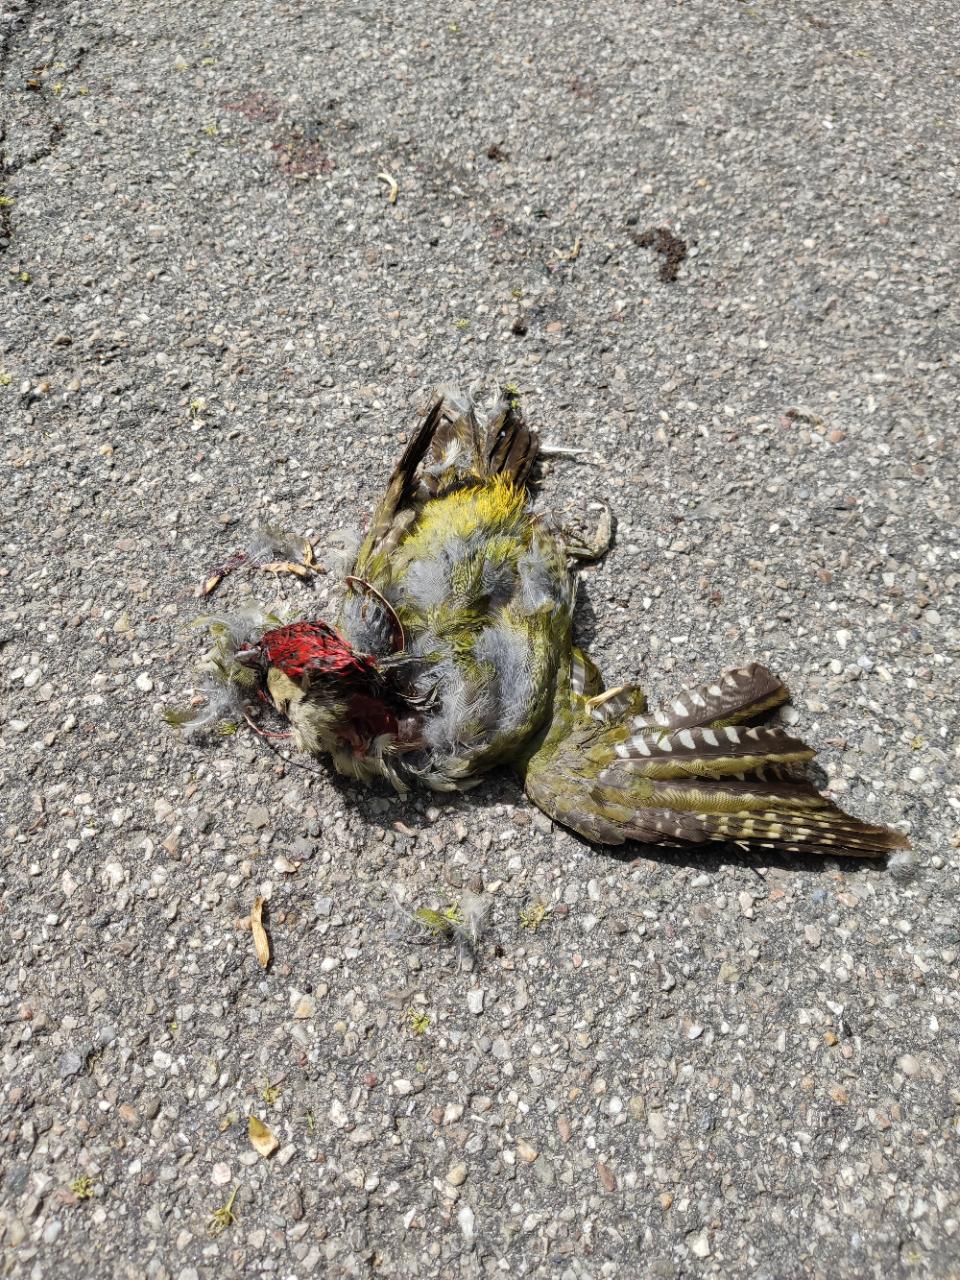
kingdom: Animalia
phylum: Chordata
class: Aves
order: Piciformes
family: Picidae
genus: Picus
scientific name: Picus viridis
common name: European green woodpecker
